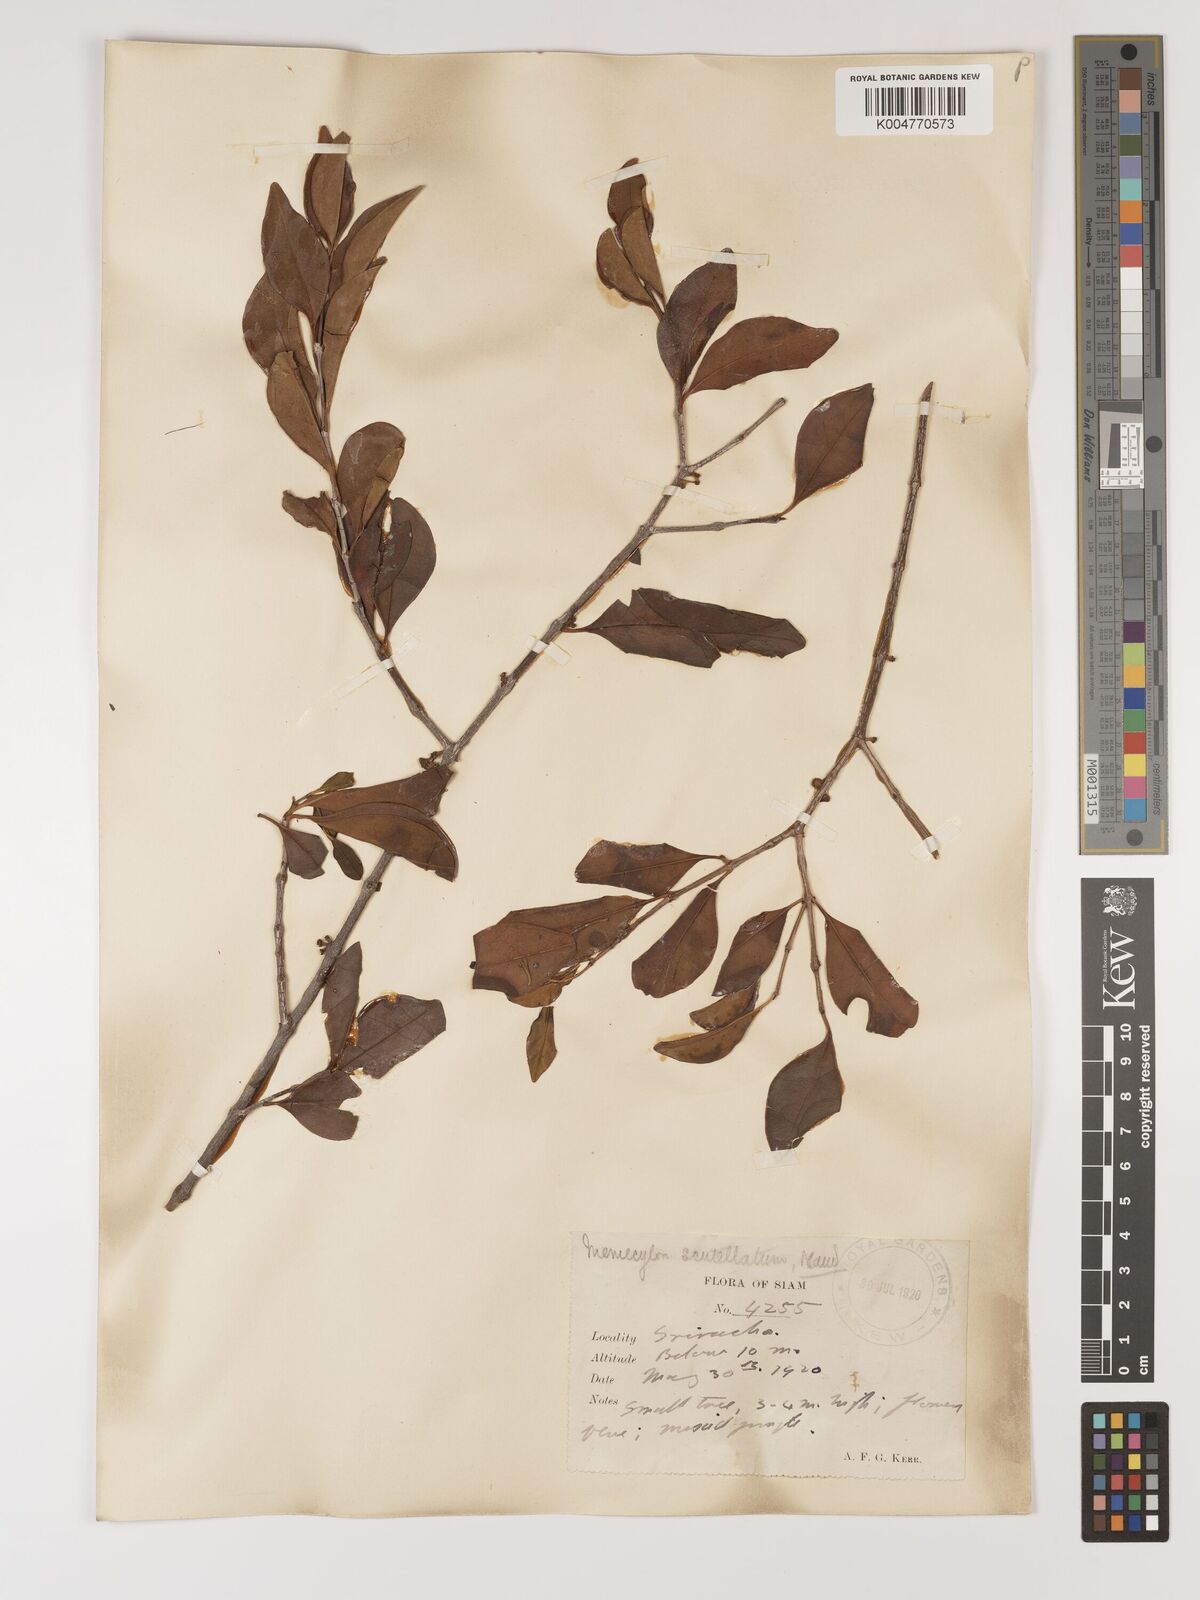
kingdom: Plantae
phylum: Tracheophyta
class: Magnoliopsida
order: Myrtales
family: Melastomataceae
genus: Memecylon
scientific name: Memecylon scutellatum
